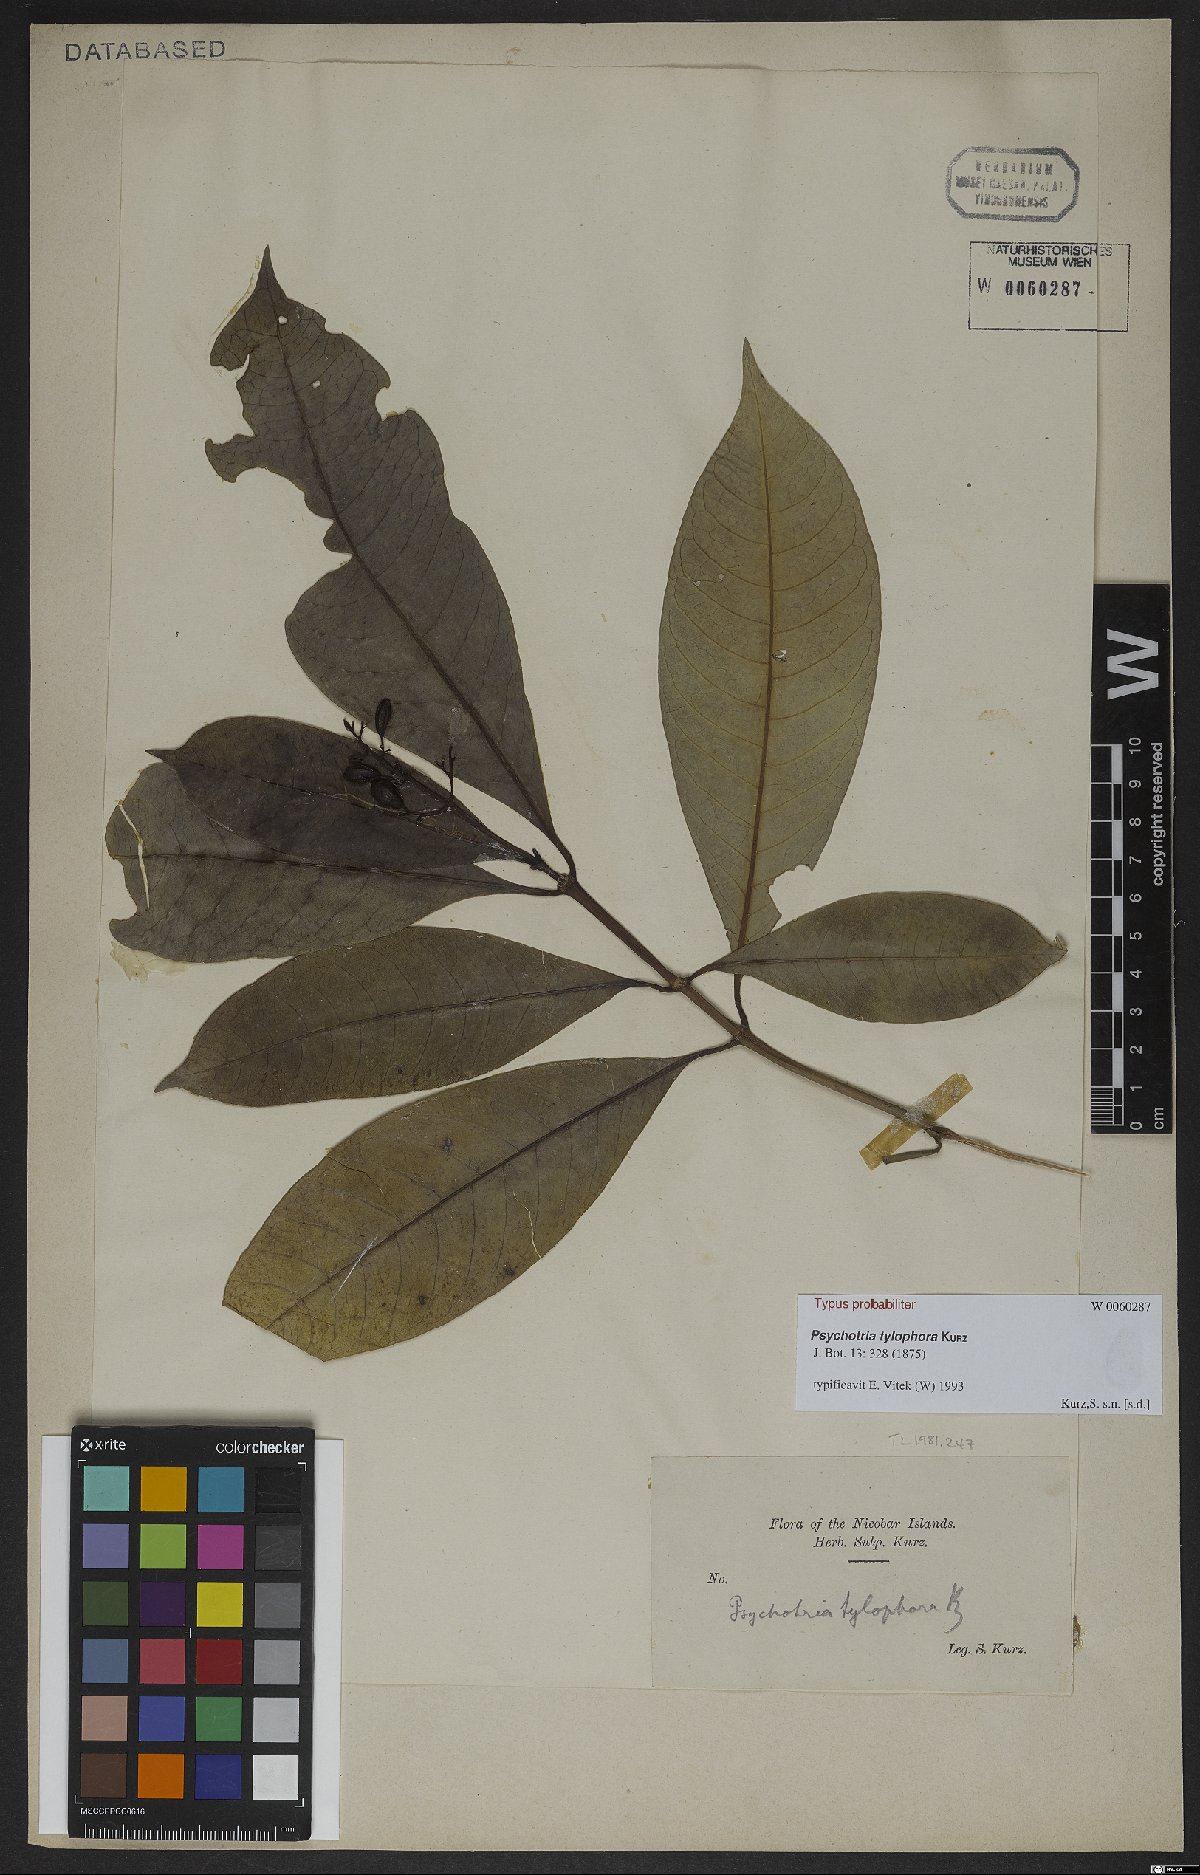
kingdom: Plantae
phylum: Tracheophyta
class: Magnoliopsida
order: Gentianales
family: Rubiaceae
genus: Psychotria
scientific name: Psychotria tylophora
